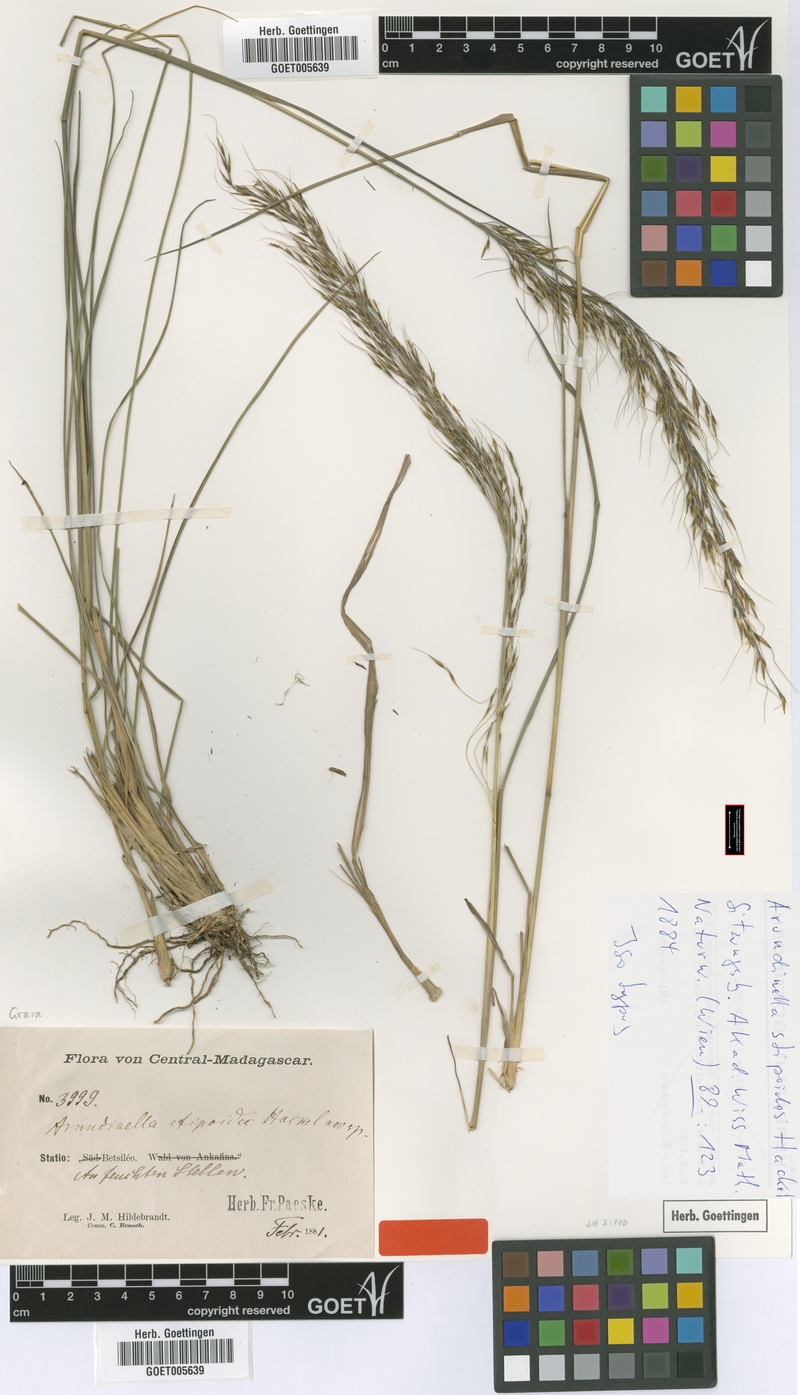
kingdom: Plantae
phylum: Tracheophyta
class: Liliopsida
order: Poales
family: Poaceae
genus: Loudetia
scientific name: Loudetia simplex
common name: Common russet grass
